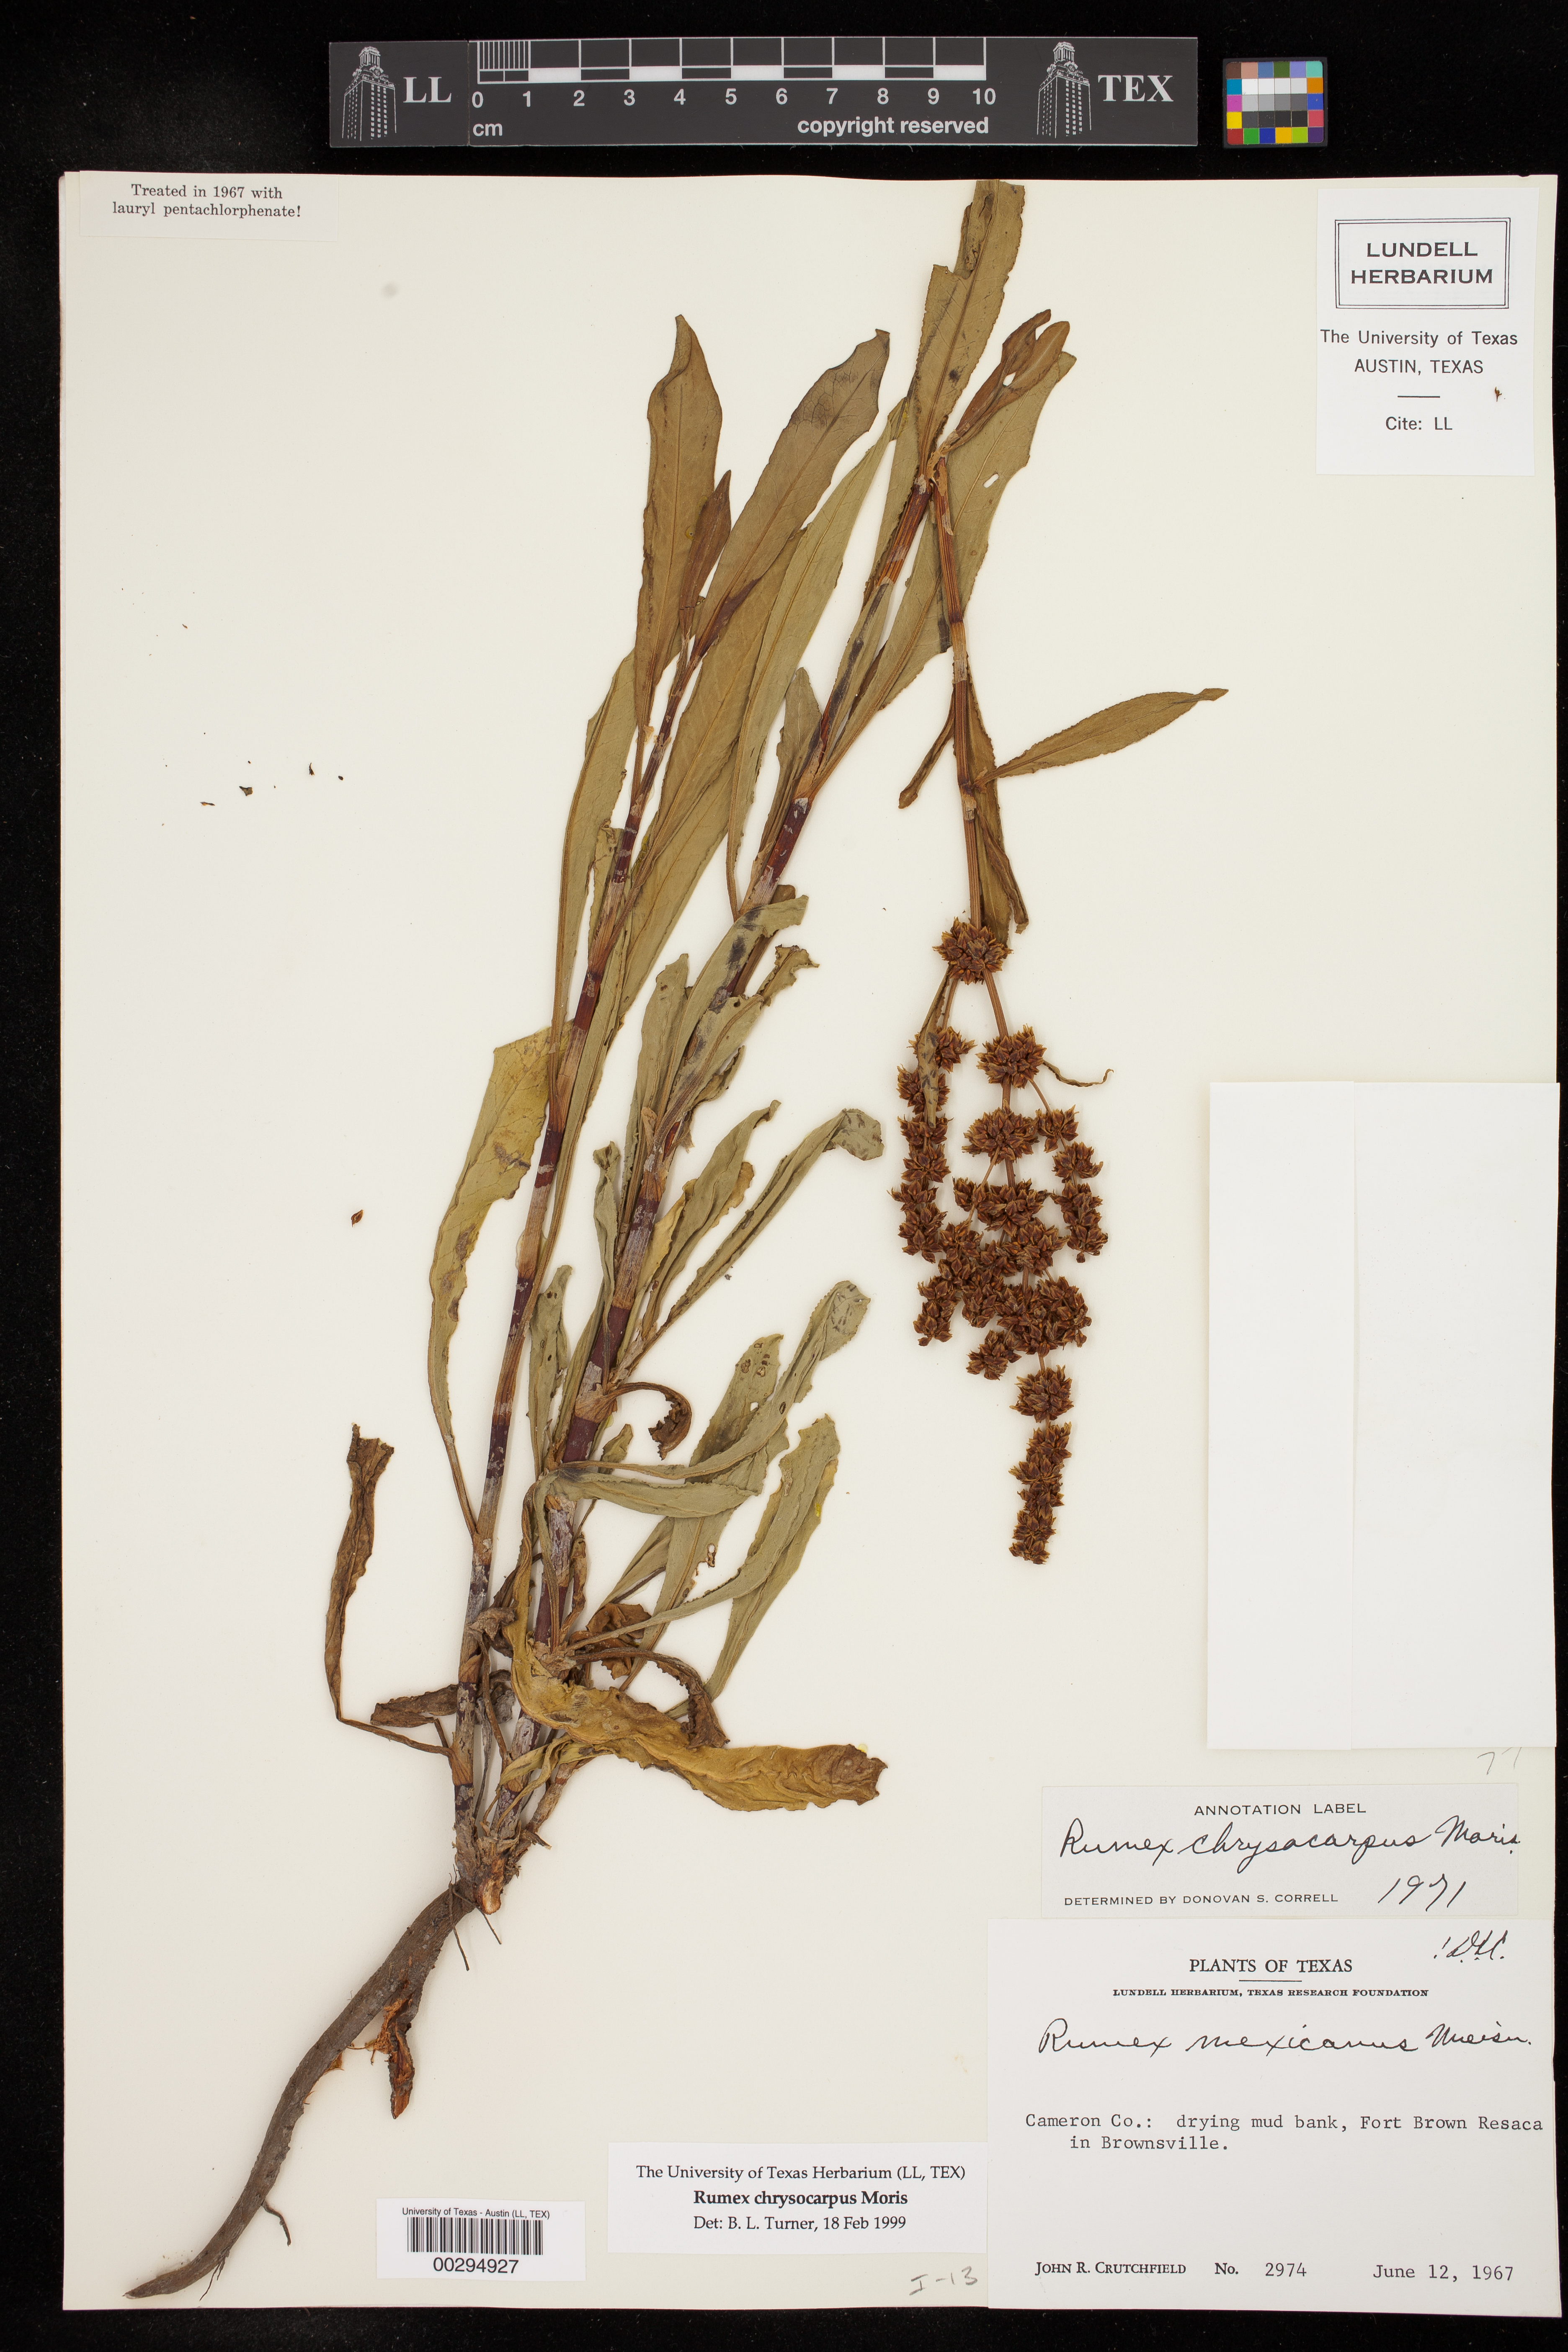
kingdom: Plantae
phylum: Tracheophyta
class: Magnoliopsida
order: Caryophyllales
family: Polygonaceae
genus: Rumex
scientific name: Rumex chrysocarpus
